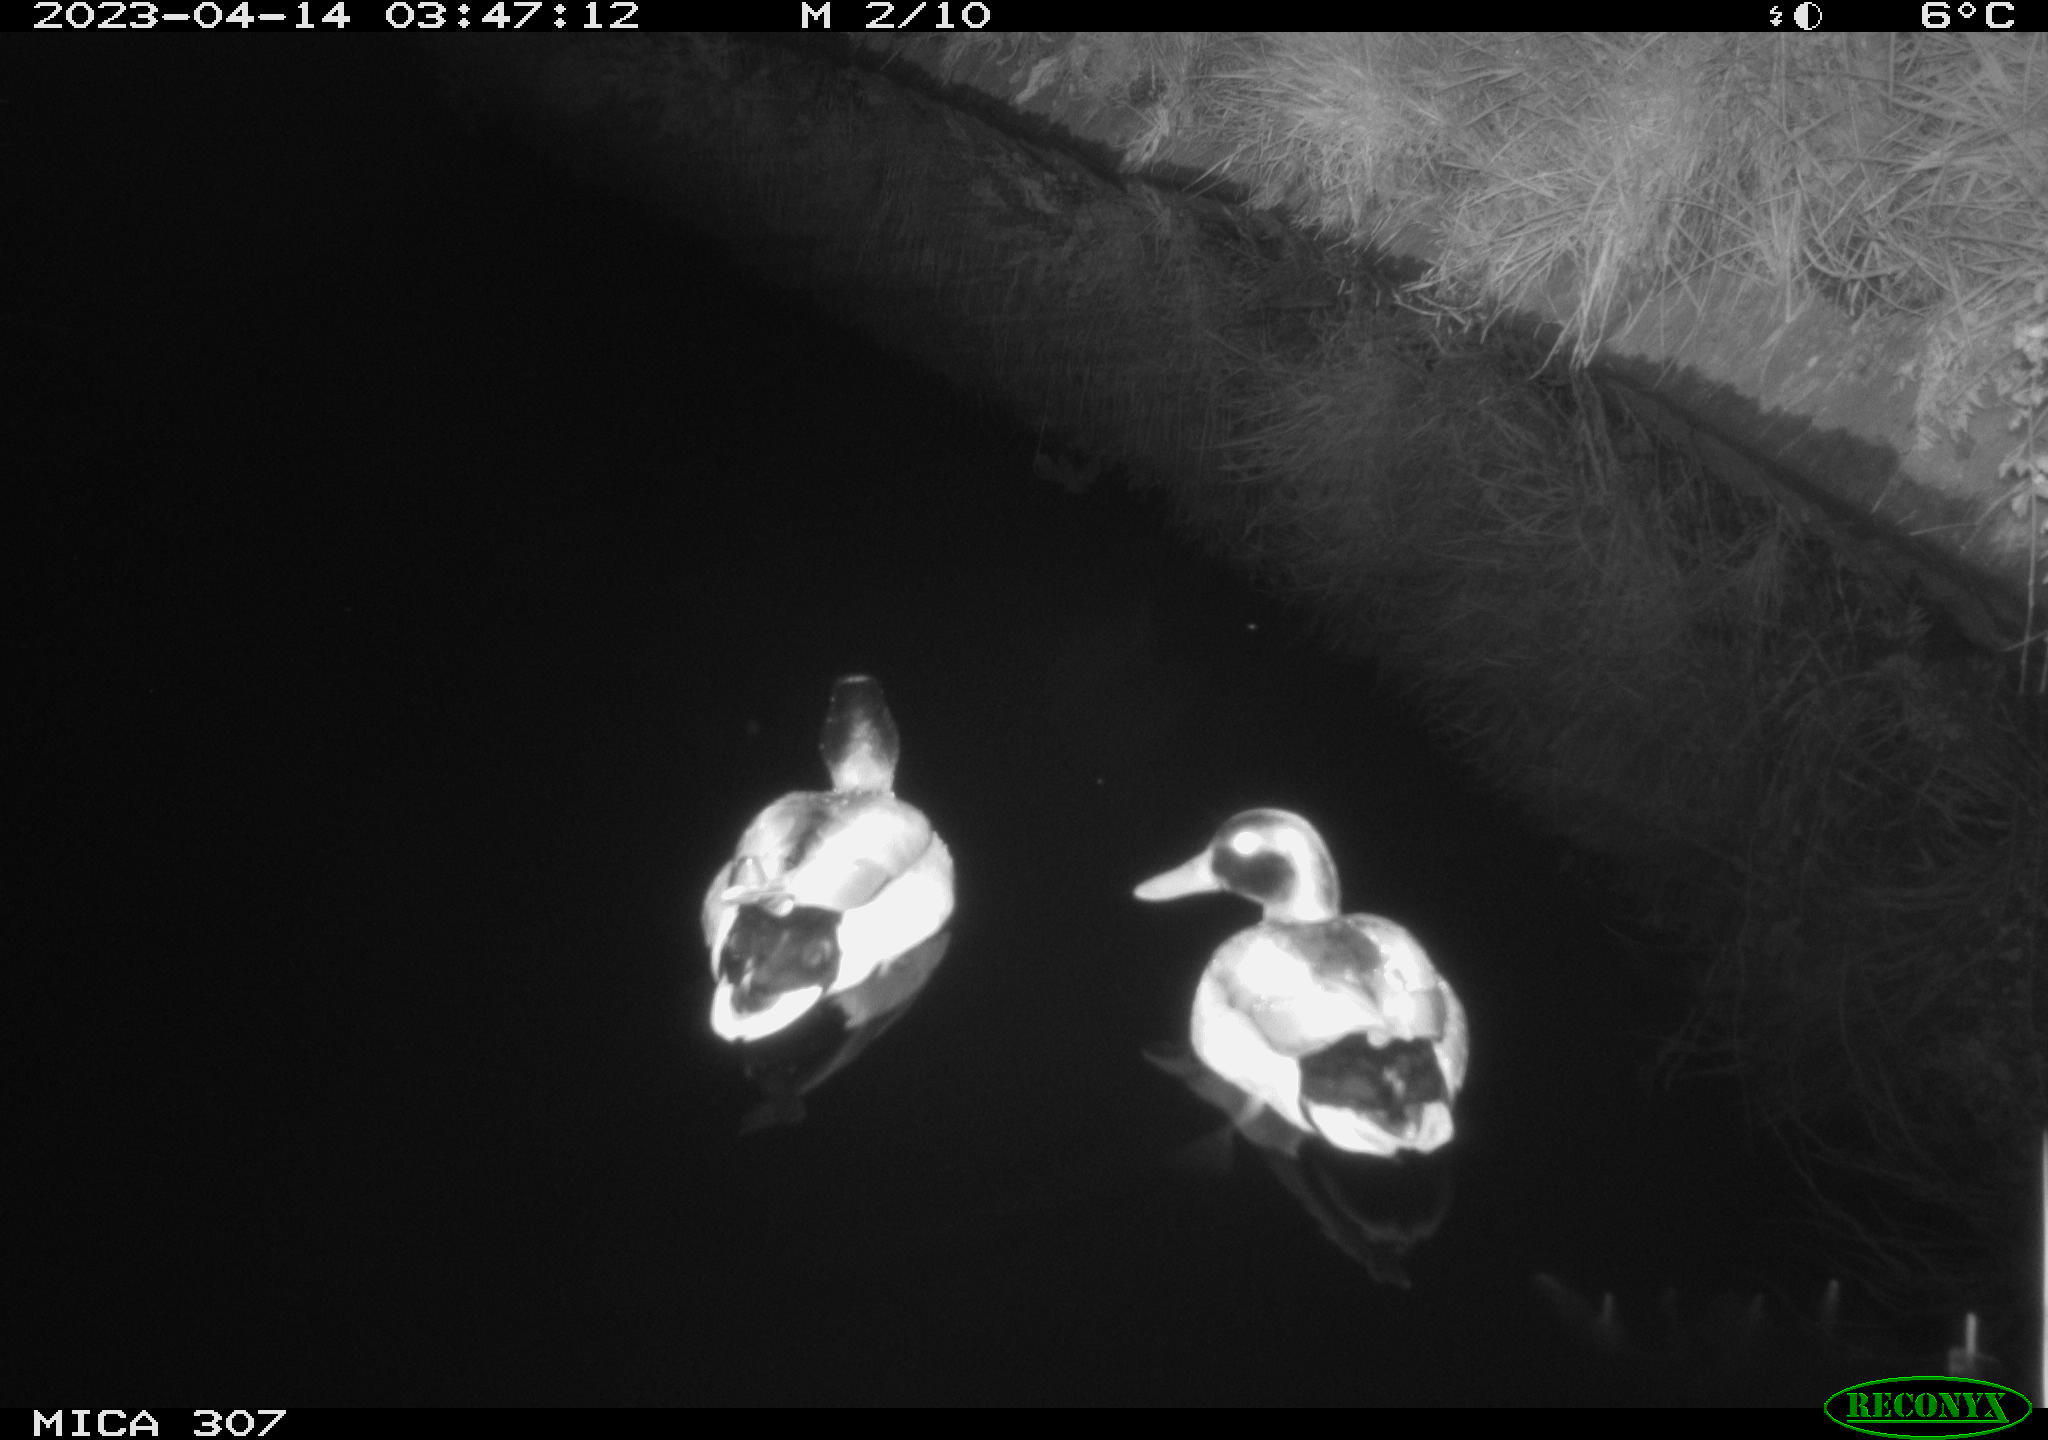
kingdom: Animalia
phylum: Chordata
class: Aves
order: Anseriformes
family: Anatidae
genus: Anas
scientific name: Anas
